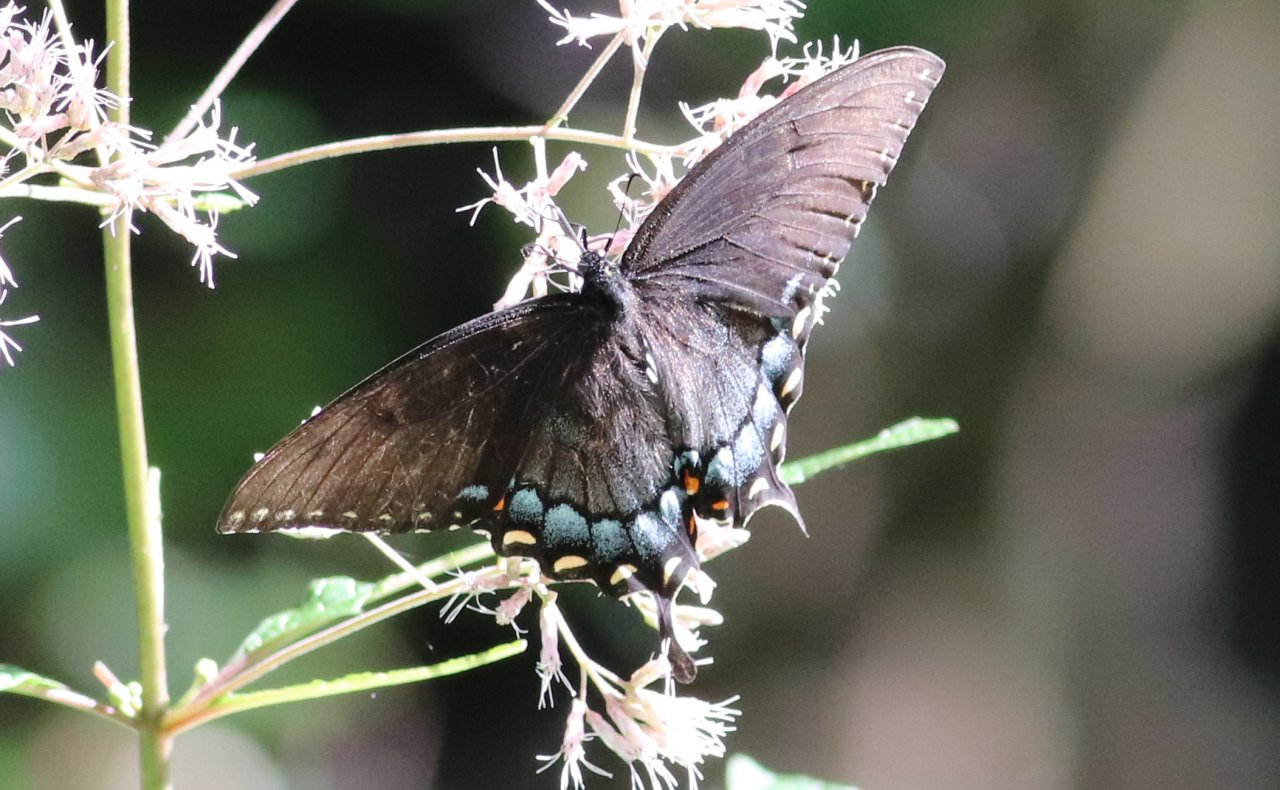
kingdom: Animalia
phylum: Arthropoda
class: Insecta
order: Lepidoptera
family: Papilionidae
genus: Pterourus
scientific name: Pterourus glaucus
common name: Eastern Tiger Swallowtail
